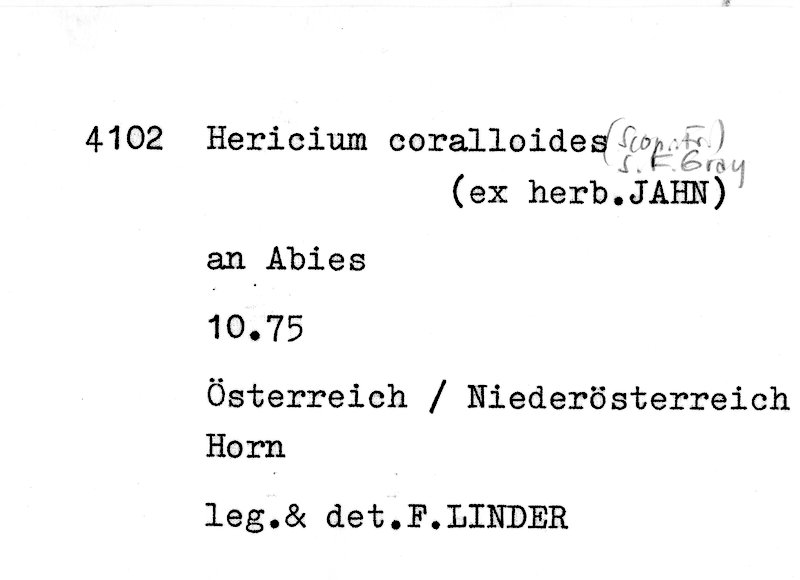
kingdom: Plantae
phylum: Tracheophyta
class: Pinopsida
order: Pinales
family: Pinaceae
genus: Abies
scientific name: Abies
